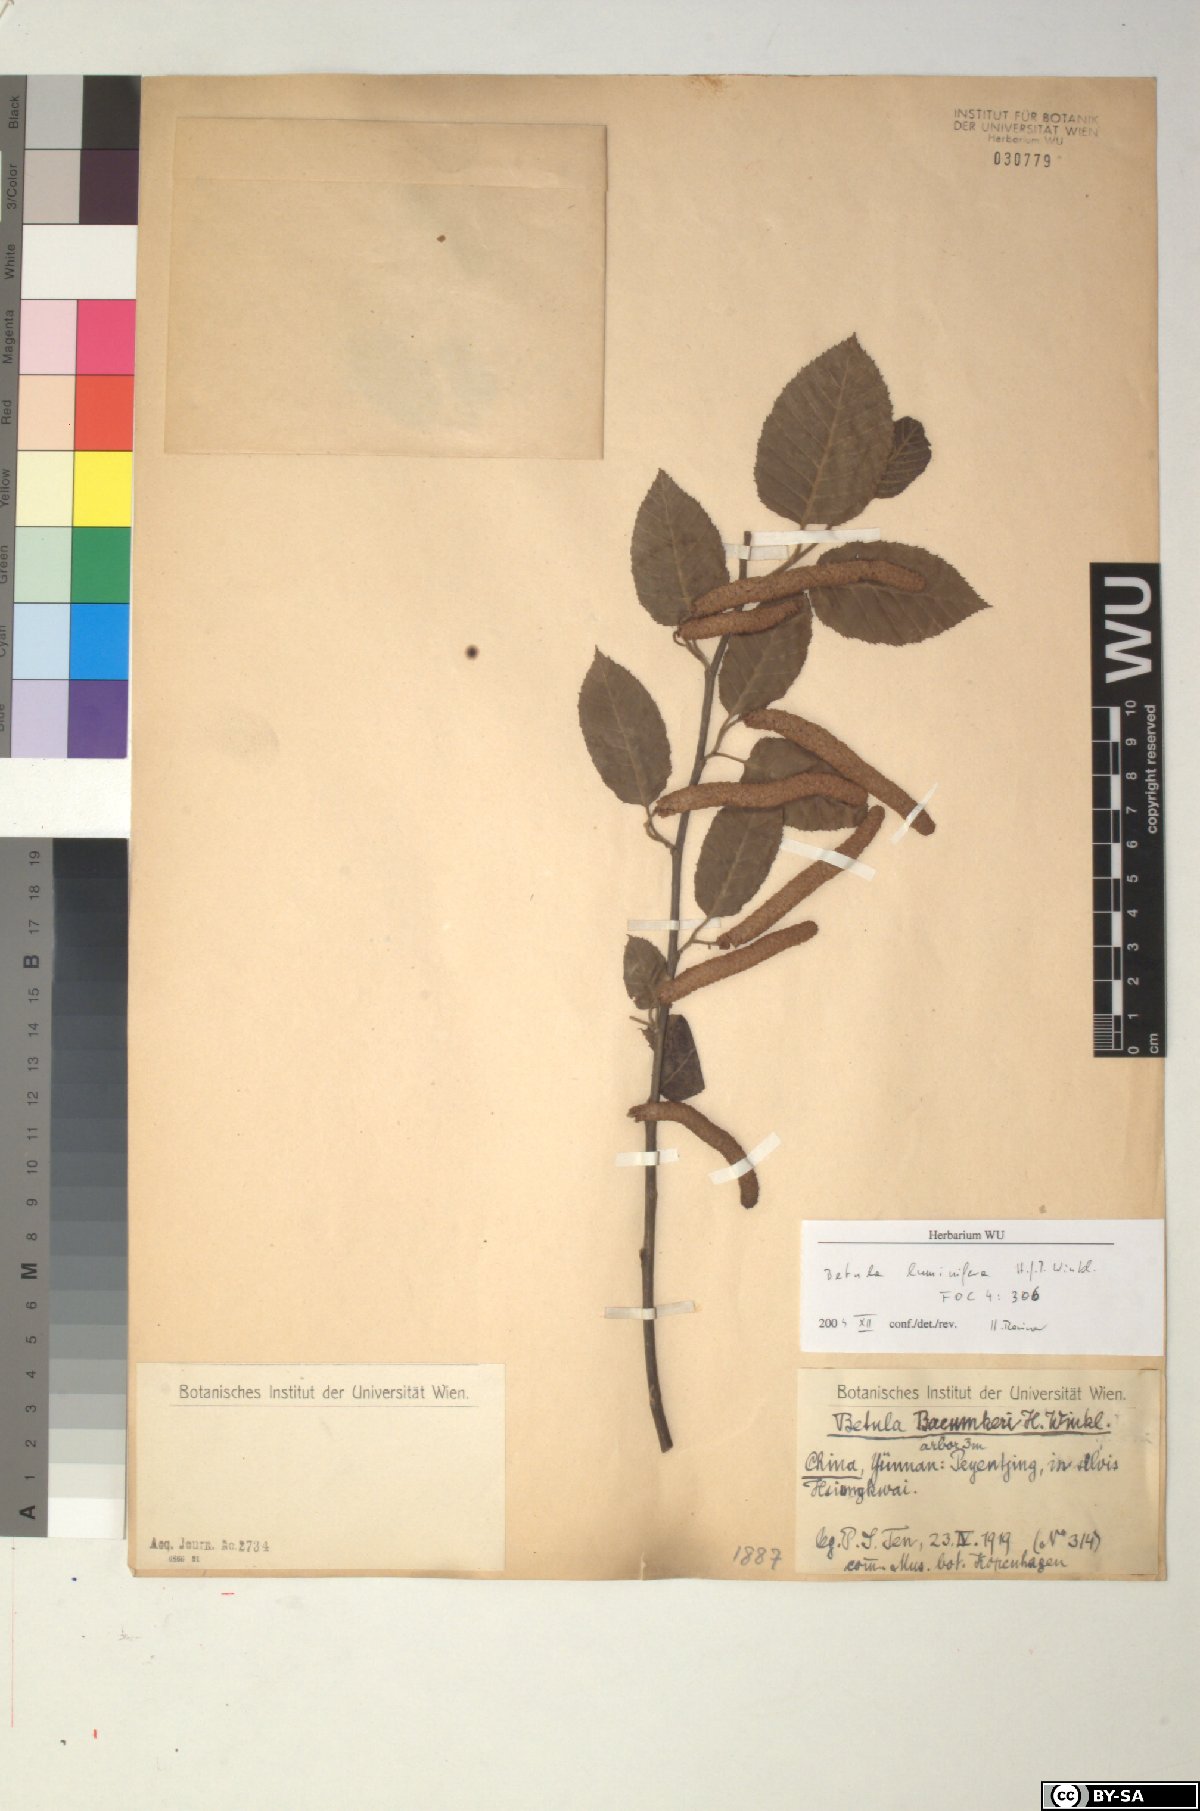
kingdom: Plantae
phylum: Tracheophyta
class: Magnoliopsida
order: Fagales
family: Betulaceae
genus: Betula
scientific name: Betula luminifera
